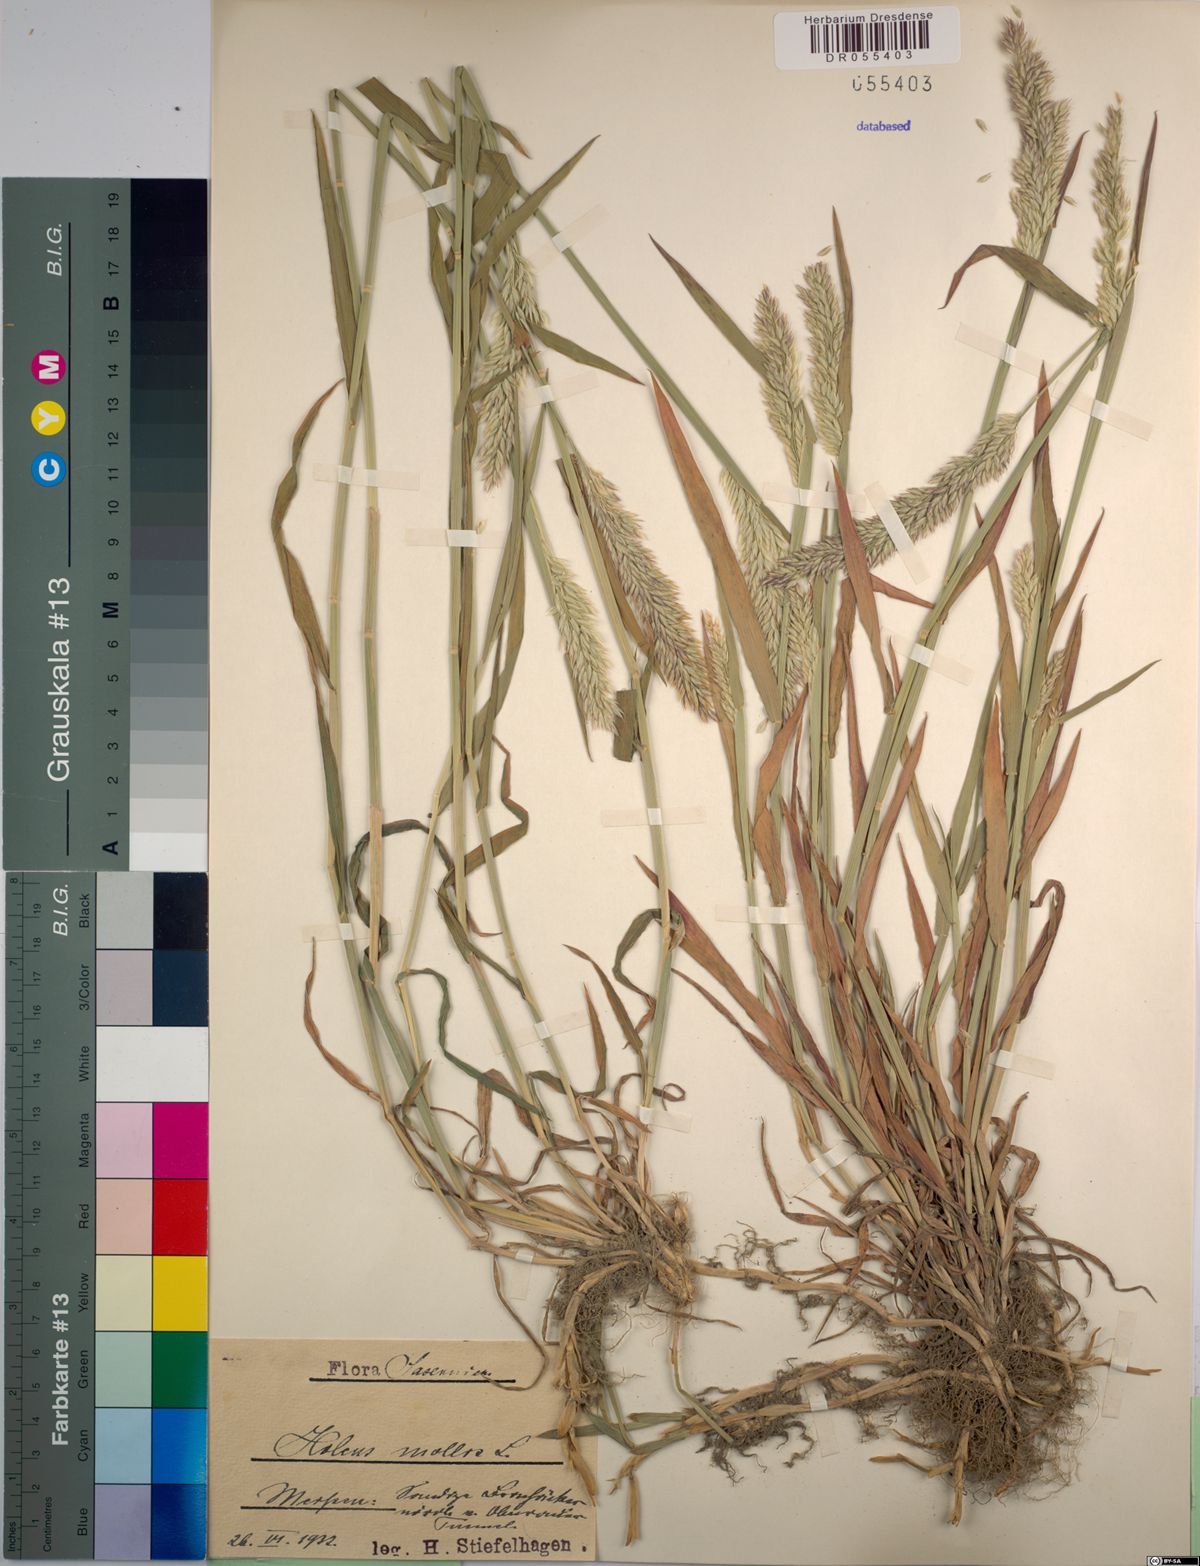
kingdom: Plantae
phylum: Tracheophyta
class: Liliopsida
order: Poales
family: Poaceae
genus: Holcus
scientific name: Holcus mollis
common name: Creeping velvetgrass
